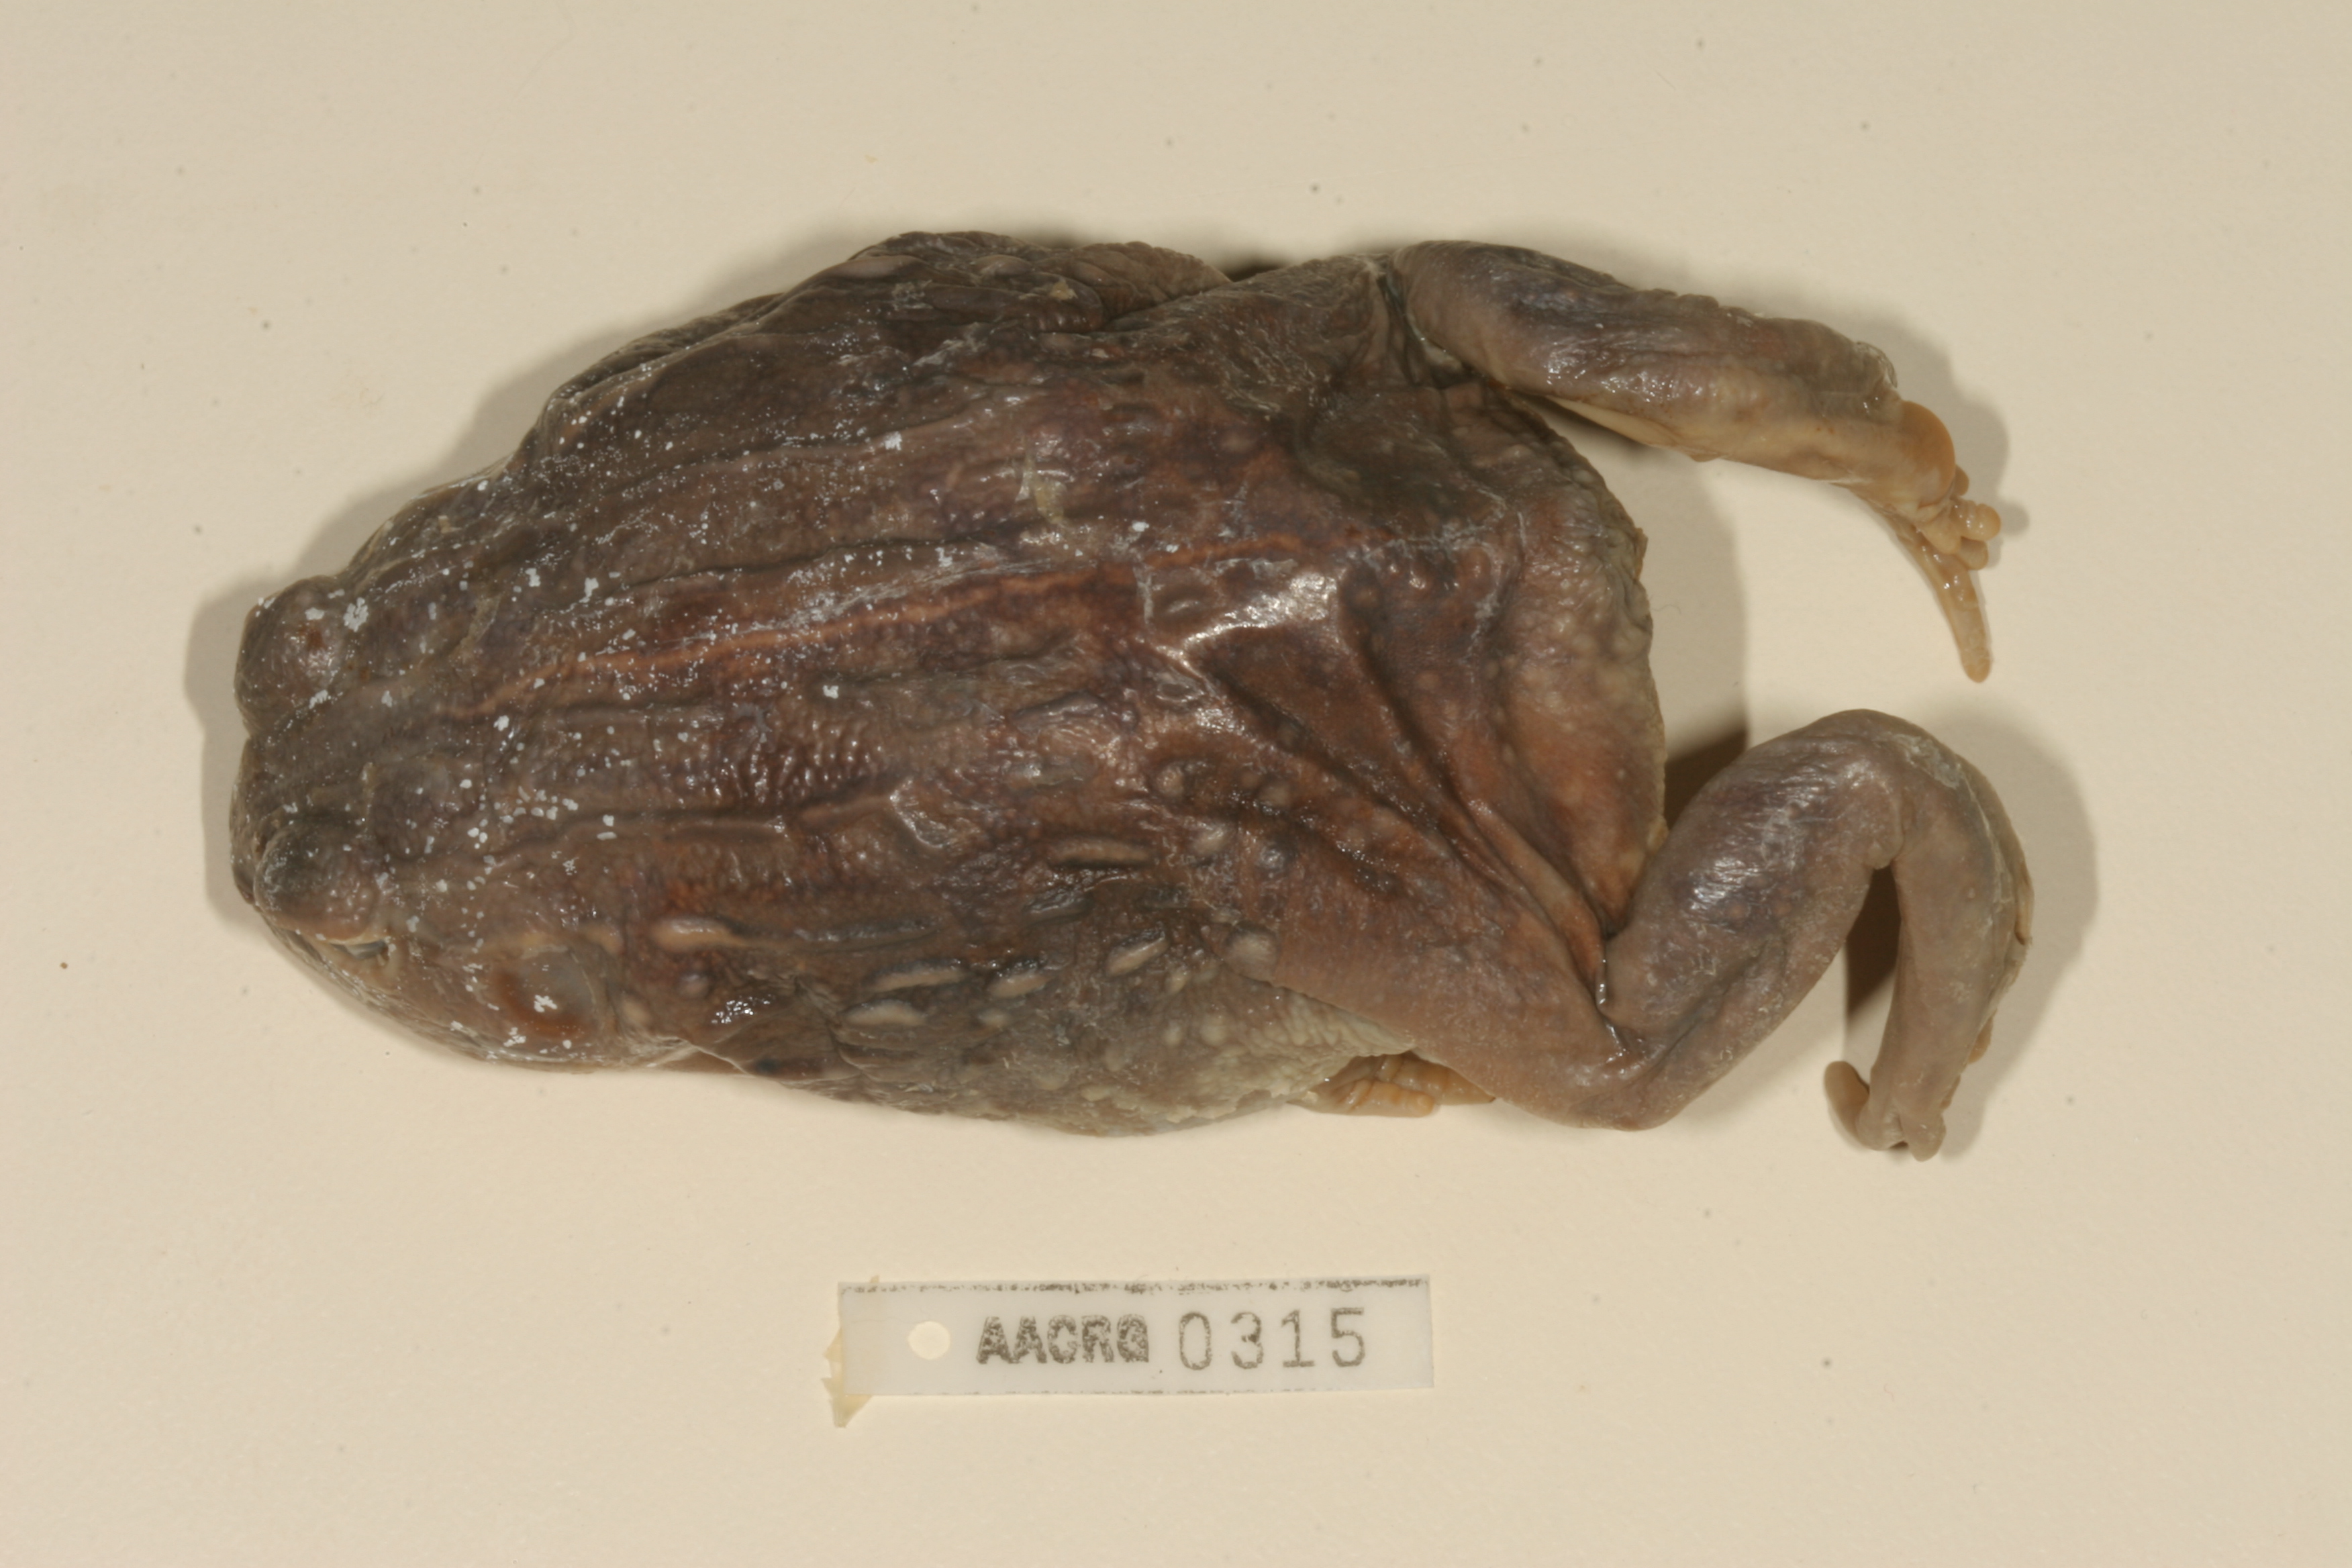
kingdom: Animalia
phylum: Chordata
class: Amphibia
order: Anura
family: Pyxicephalidae
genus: Pyxicephalus
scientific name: Pyxicephalus adspersus
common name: African bullfrog
